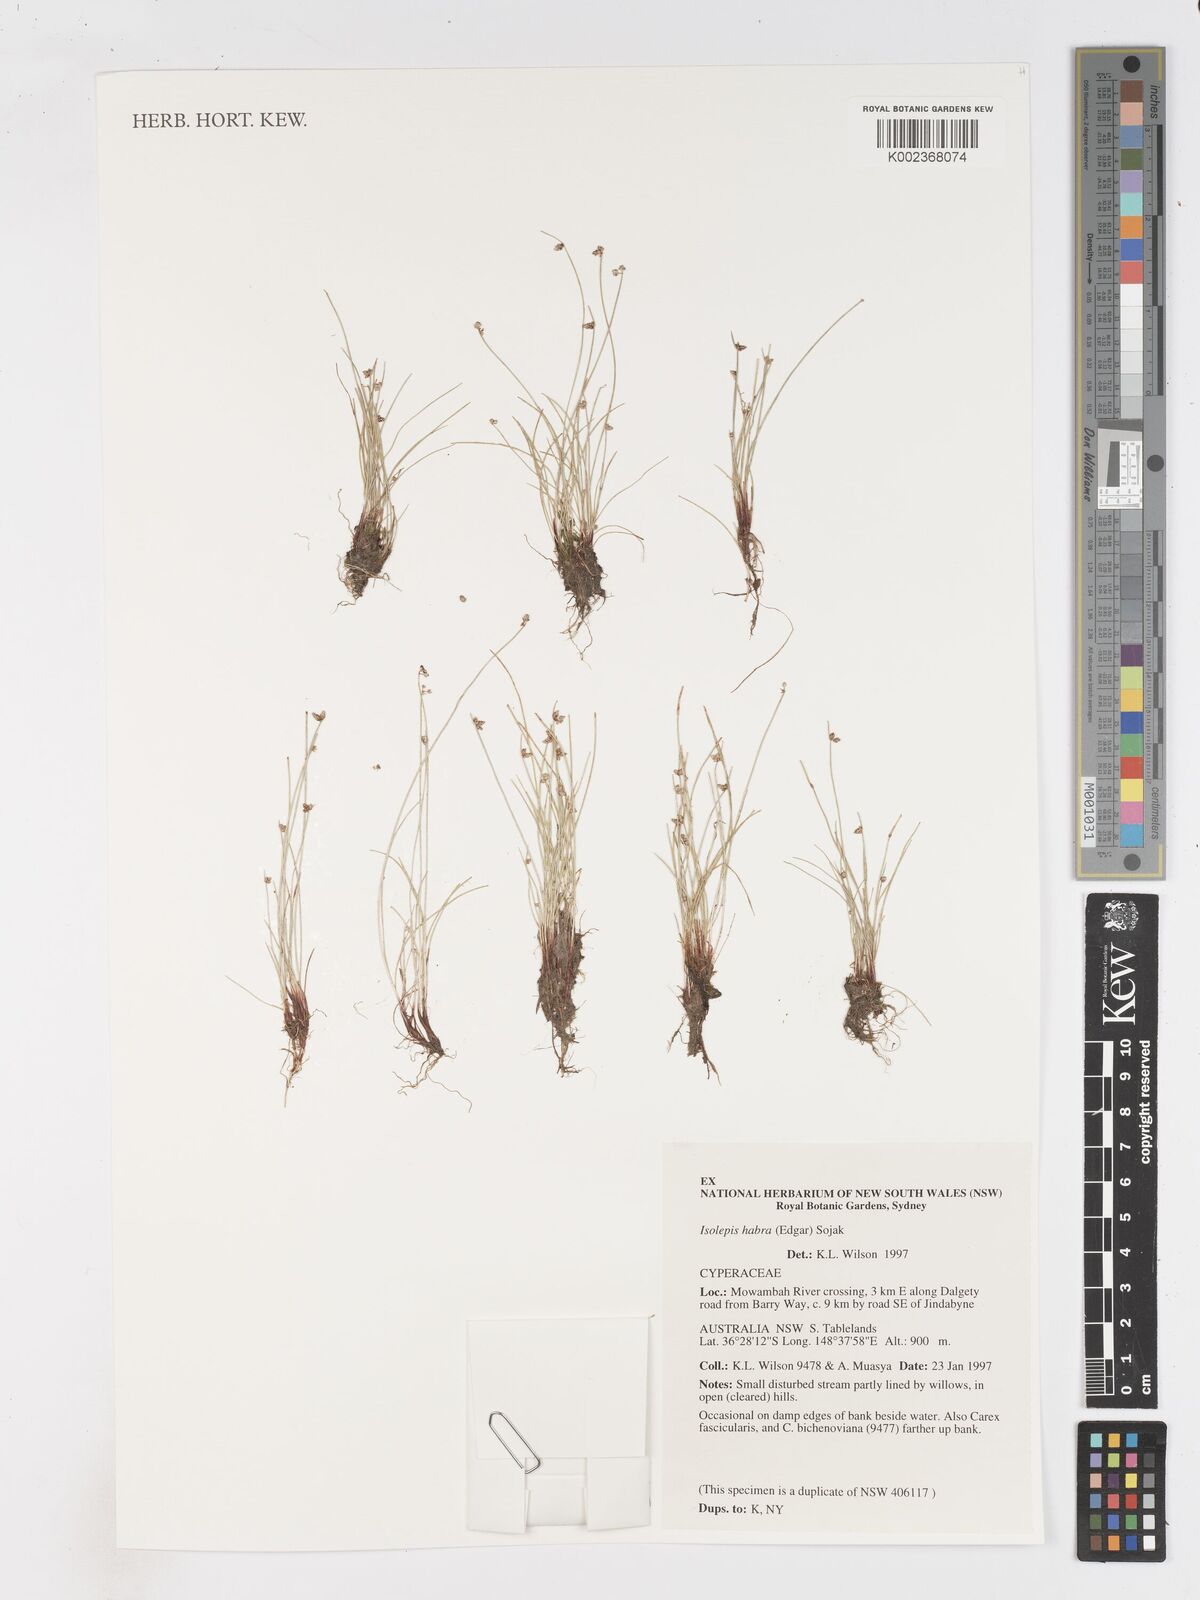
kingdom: Plantae
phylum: Tracheophyta
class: Liliopsida
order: Poales
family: Cyperaceae
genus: Isolepis
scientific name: Isolepis habra
